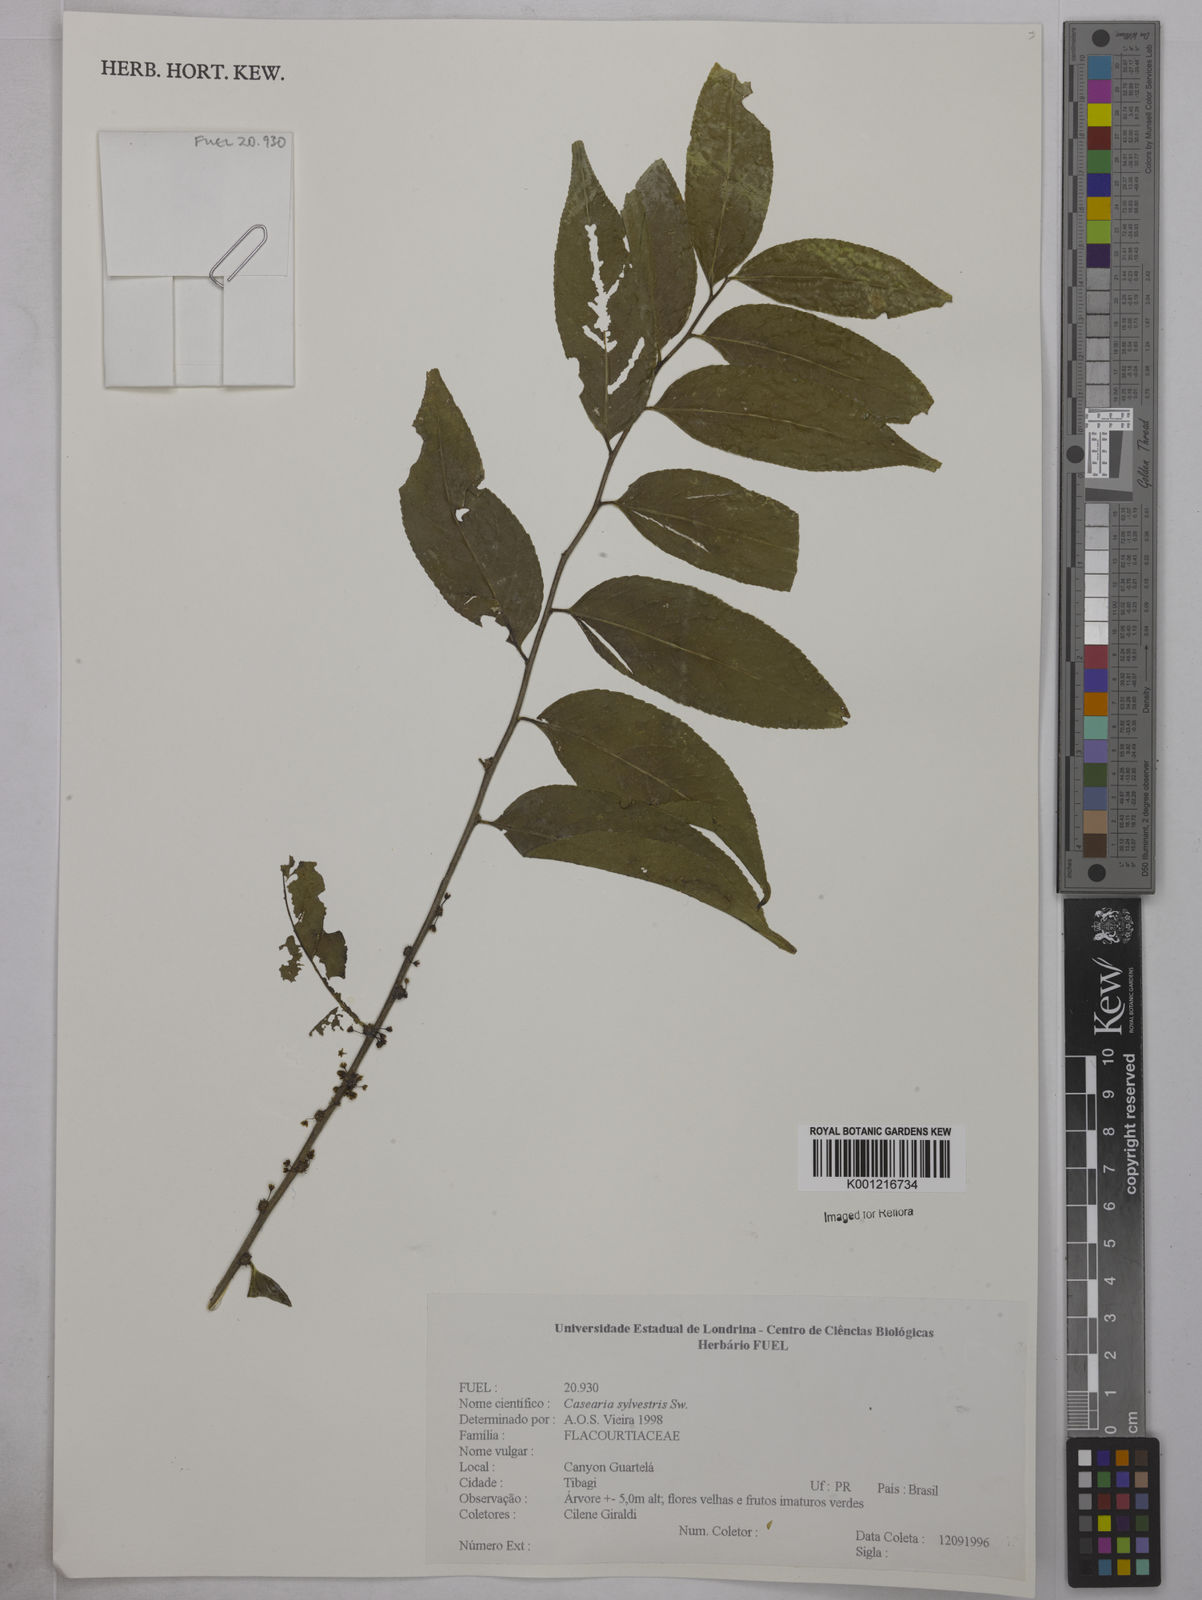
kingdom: Plantae
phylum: Tracheophyta
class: Magnoliopsida
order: Malpighiales
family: Salicaceae
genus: Casearia
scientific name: Casearia sylvestris
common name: Wild sage
